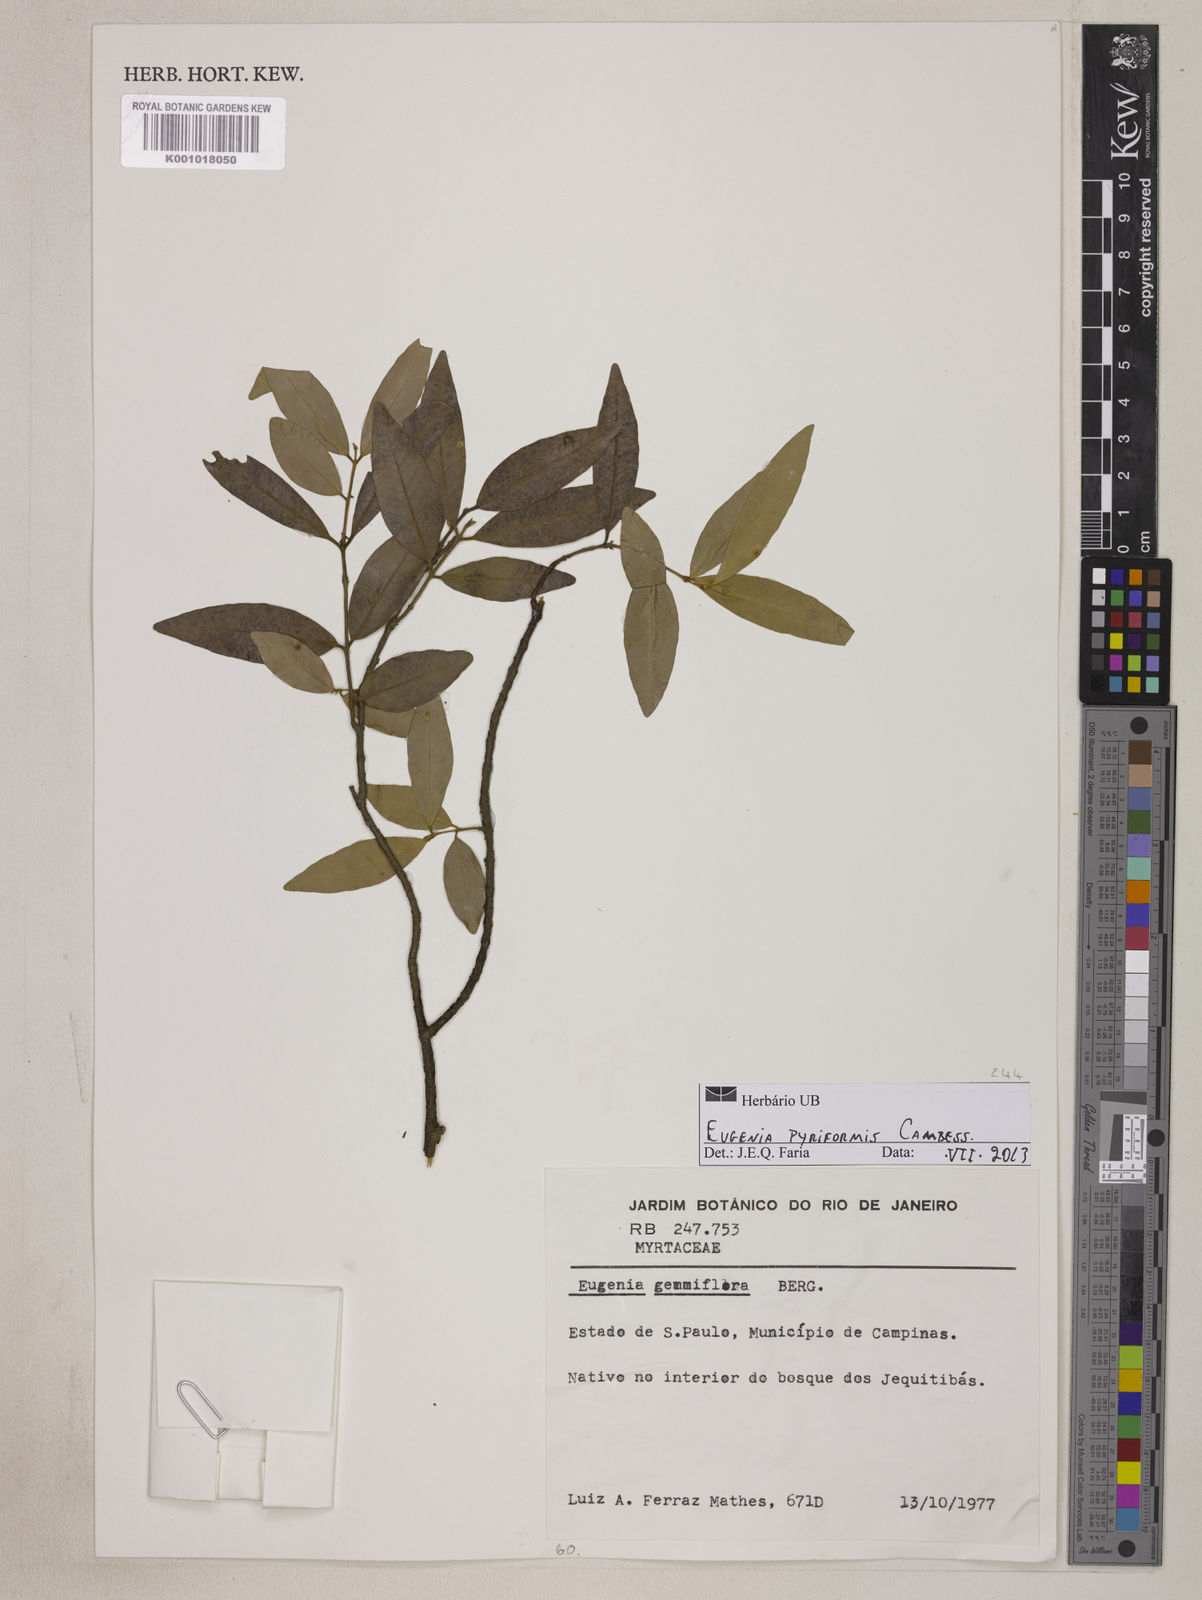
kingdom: Plantae
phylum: Tracheophyta
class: Magnoliopsida
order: Myrtales
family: Myrtaceae
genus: Eugenia
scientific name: Eugenia pyriformis
